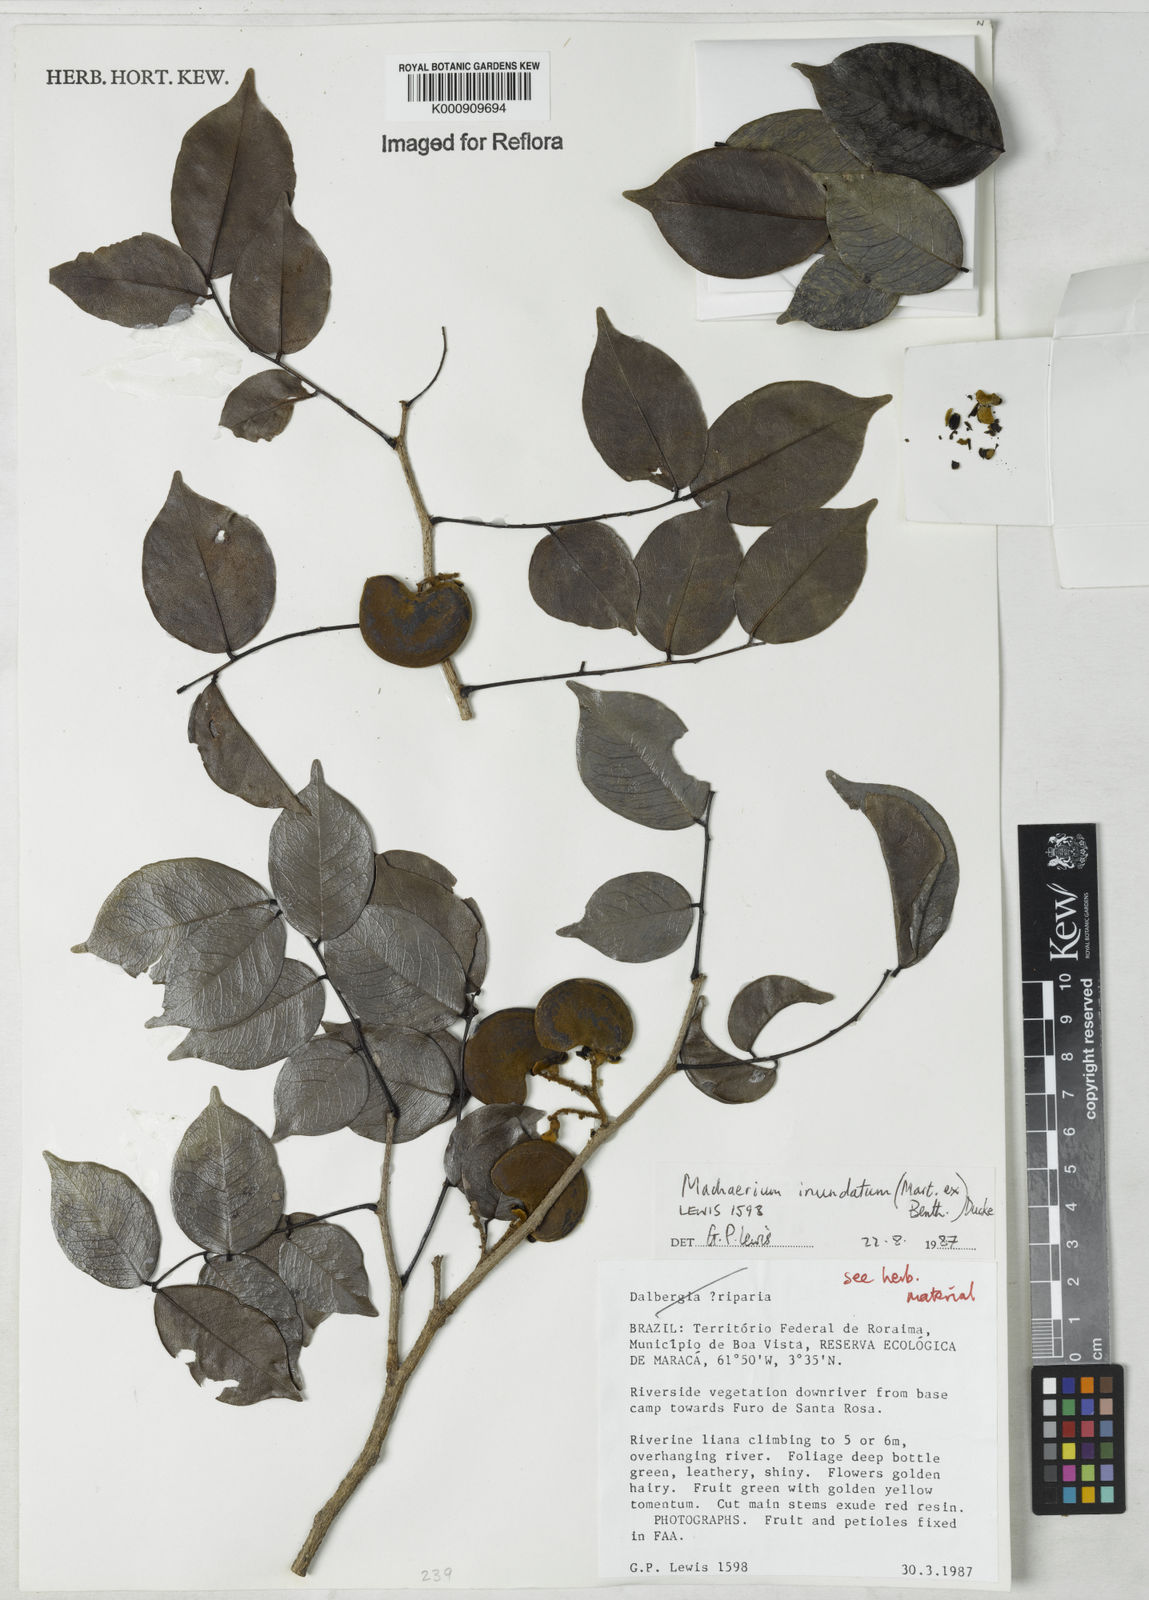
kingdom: Plantae
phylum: Tracheophyta
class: Magnoliopsida
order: Fabales
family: Fabaceae
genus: Machaerium
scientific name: Machaerium inundatum
